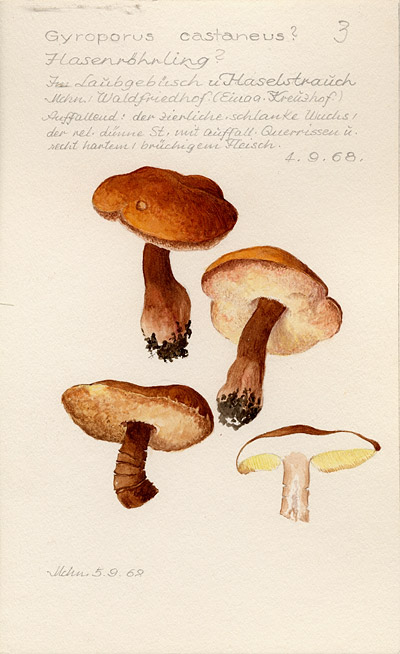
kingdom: Fungi
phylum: Basidiomycota
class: Agaricomycetes
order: Boletales
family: Gyroporaceae
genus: Gyroporus
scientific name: Gyroporus castaneus
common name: Chestnut bolete
